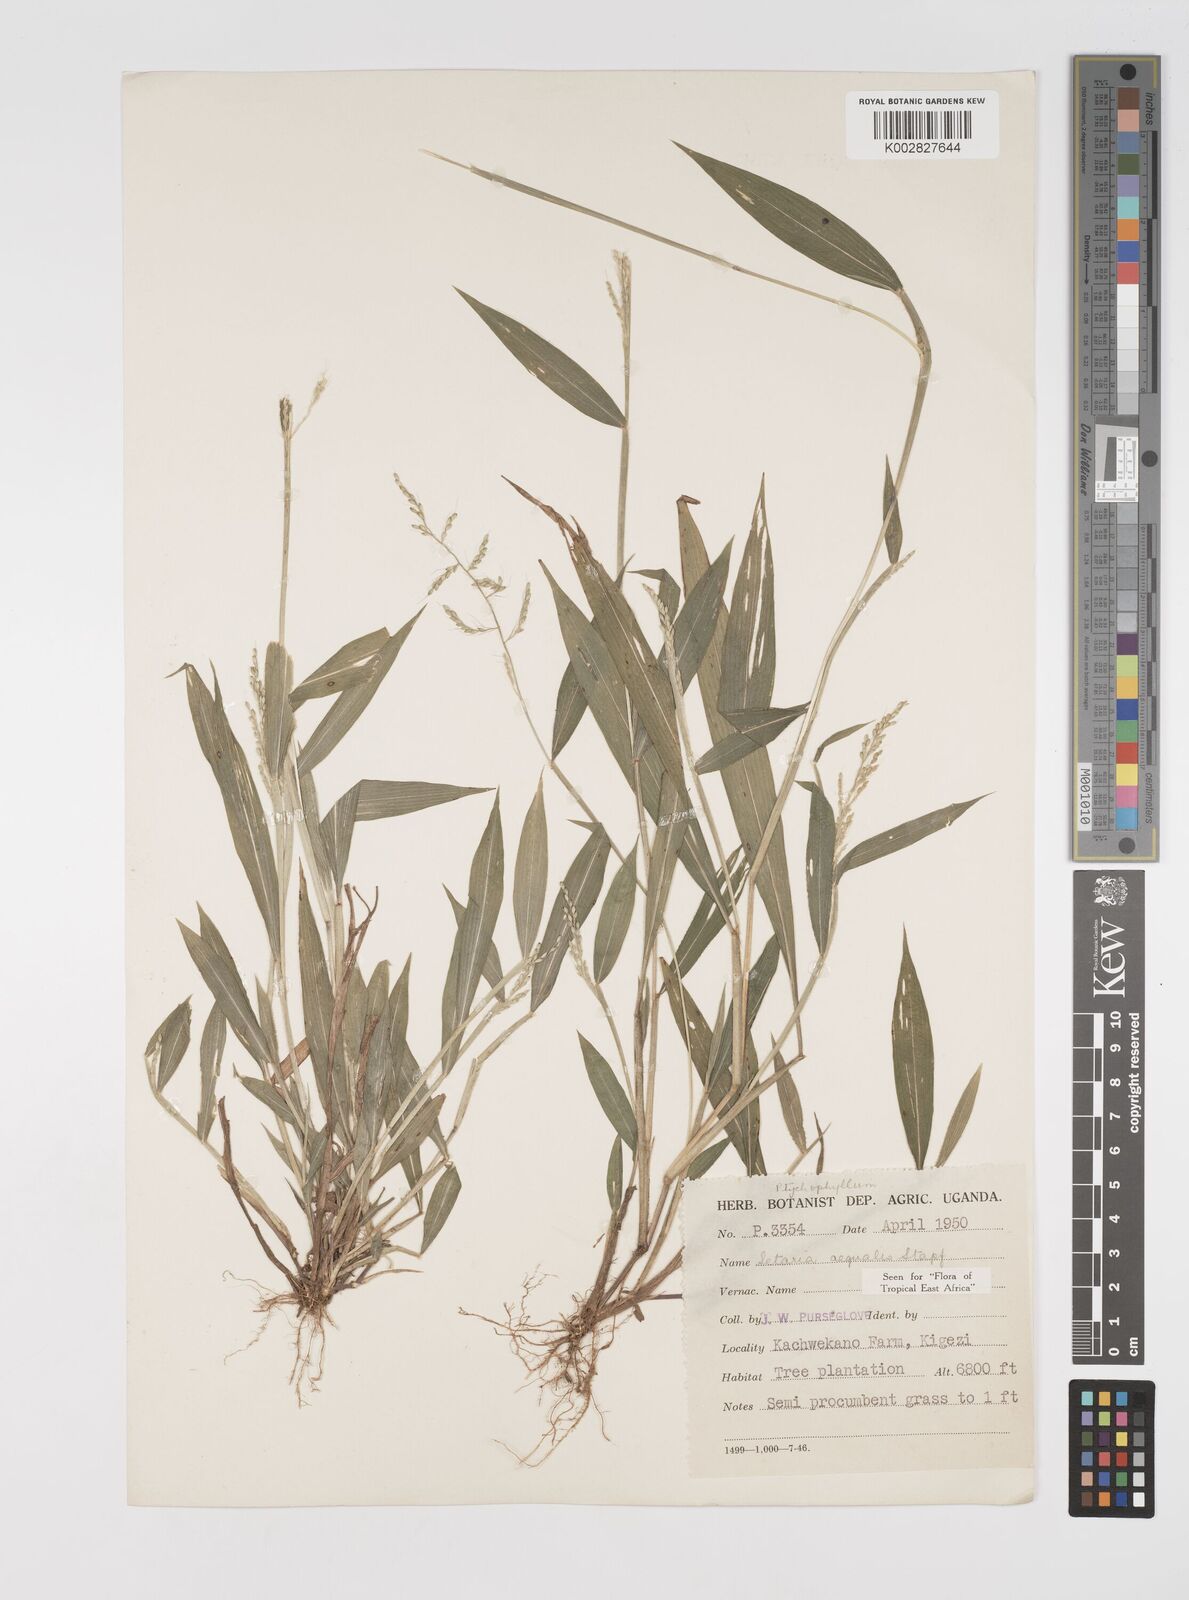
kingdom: Plantae
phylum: Tracheophyta
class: Liliopsida
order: Poales
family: Poaceae
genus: Setaria
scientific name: Setaria homonyma
